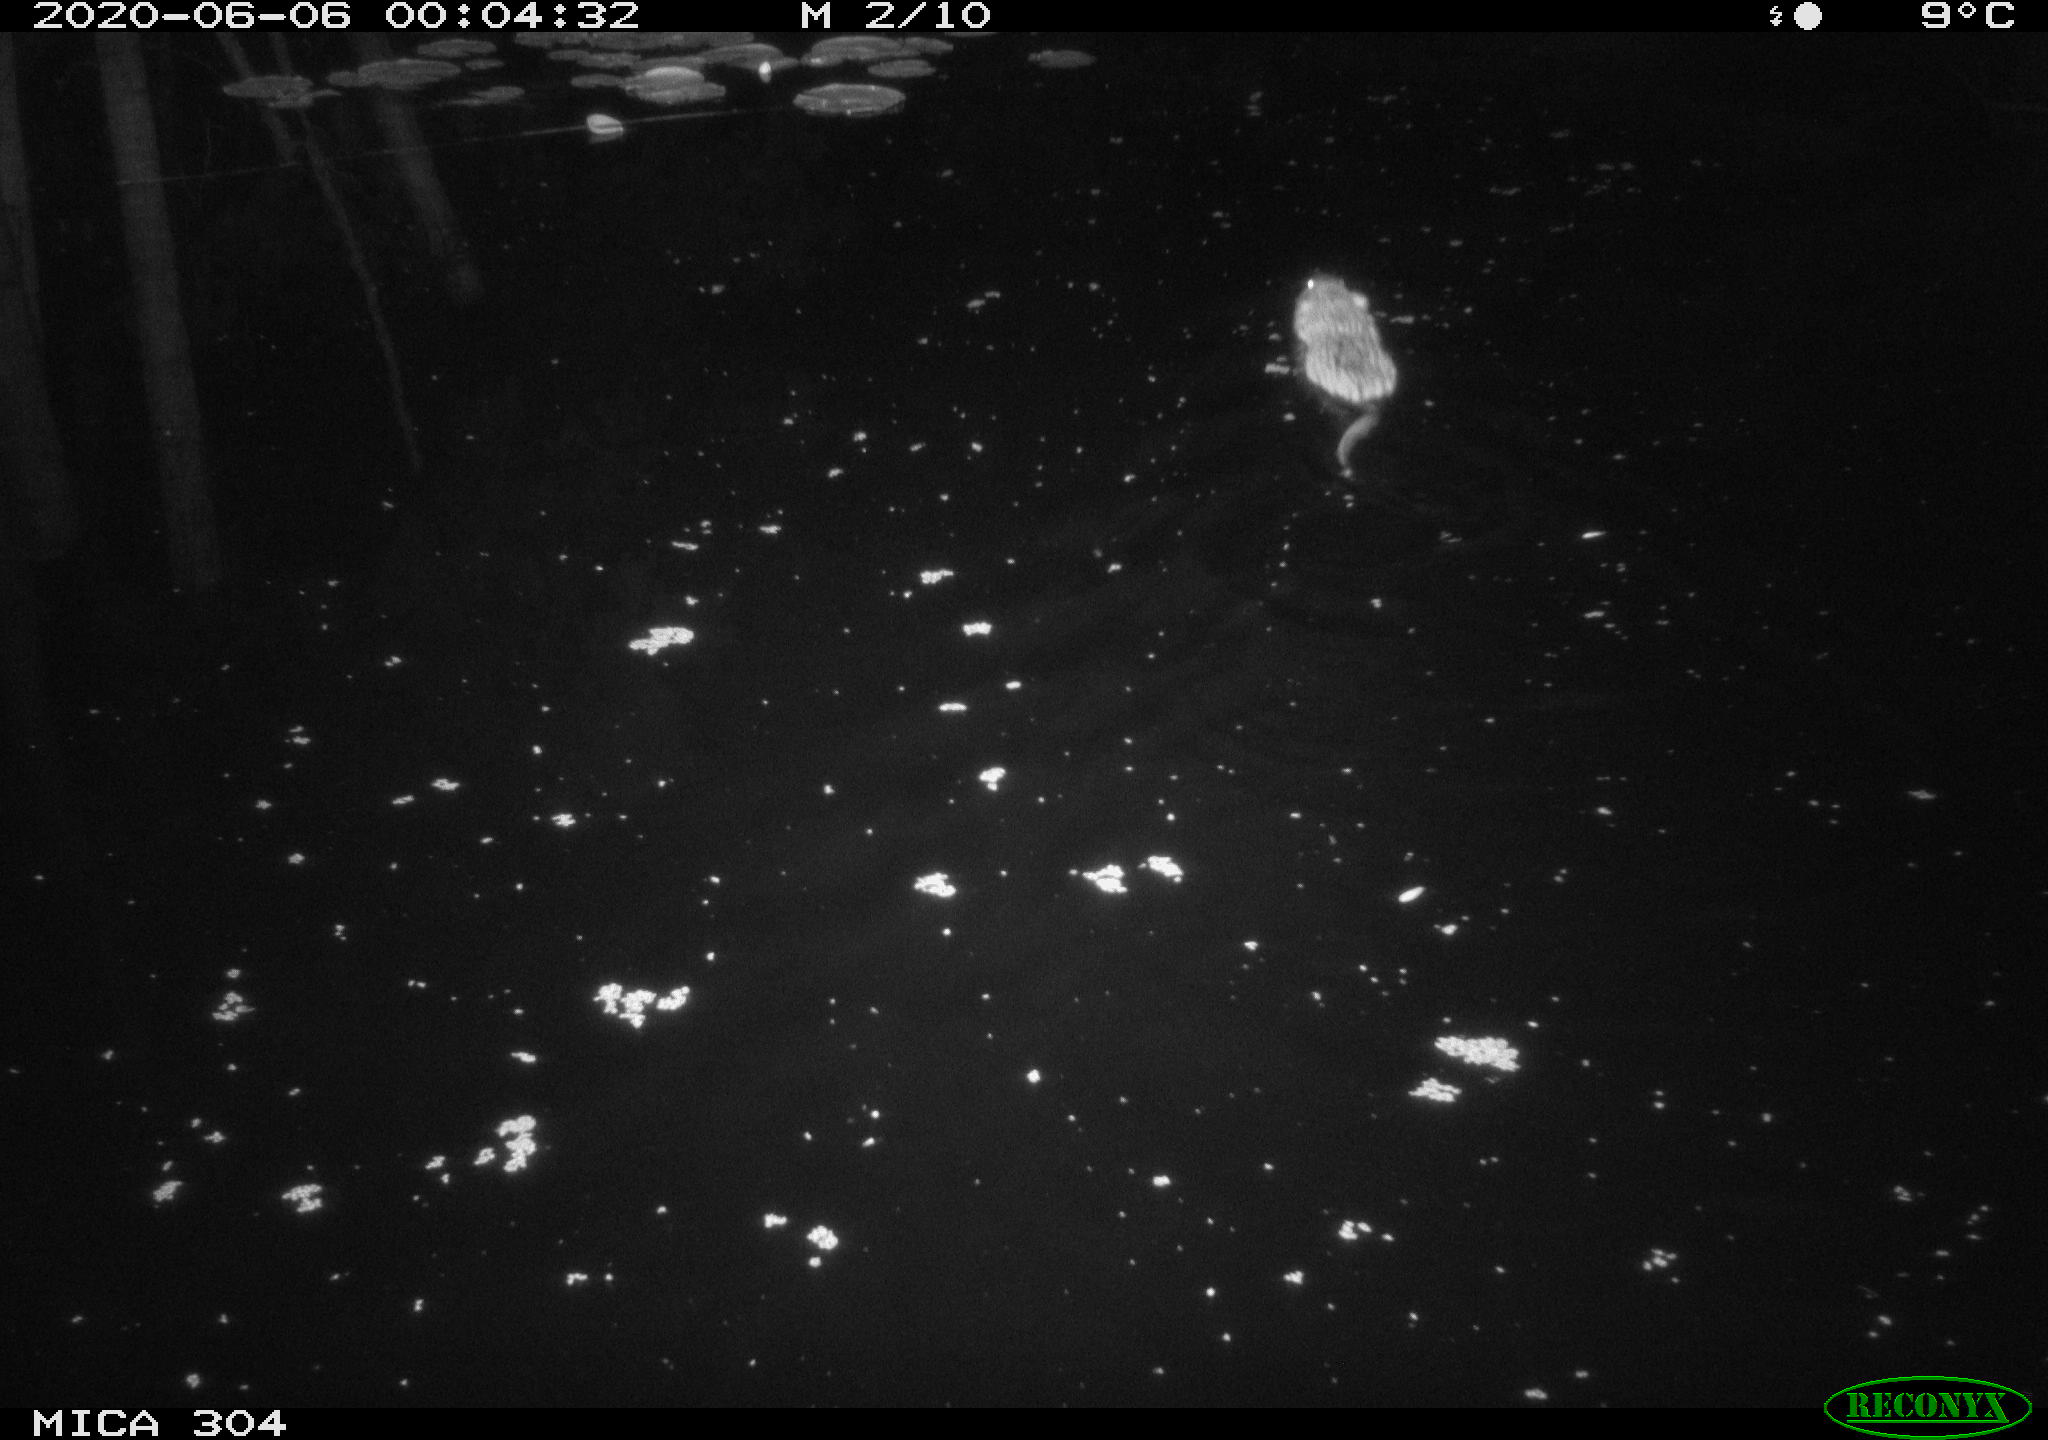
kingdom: Animalia
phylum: Chordata
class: Mammalia
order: Rodentia
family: Cricetidae
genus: Ondatra
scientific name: Ondatra zibethicus
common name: Muskrat
